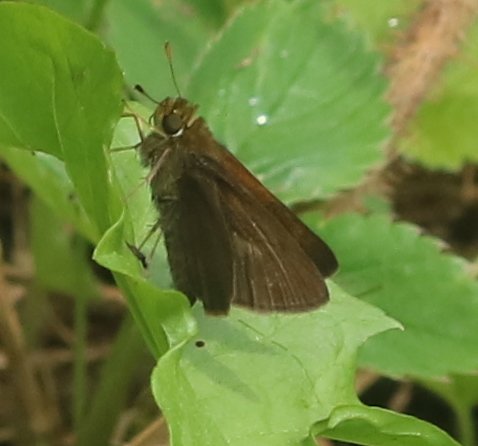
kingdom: Animalia
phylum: Arthropoda
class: Insecta
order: Lepidoptera
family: Hesperiidae
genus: Euphyes
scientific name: Euphyes vestris
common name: Dun Skipper
